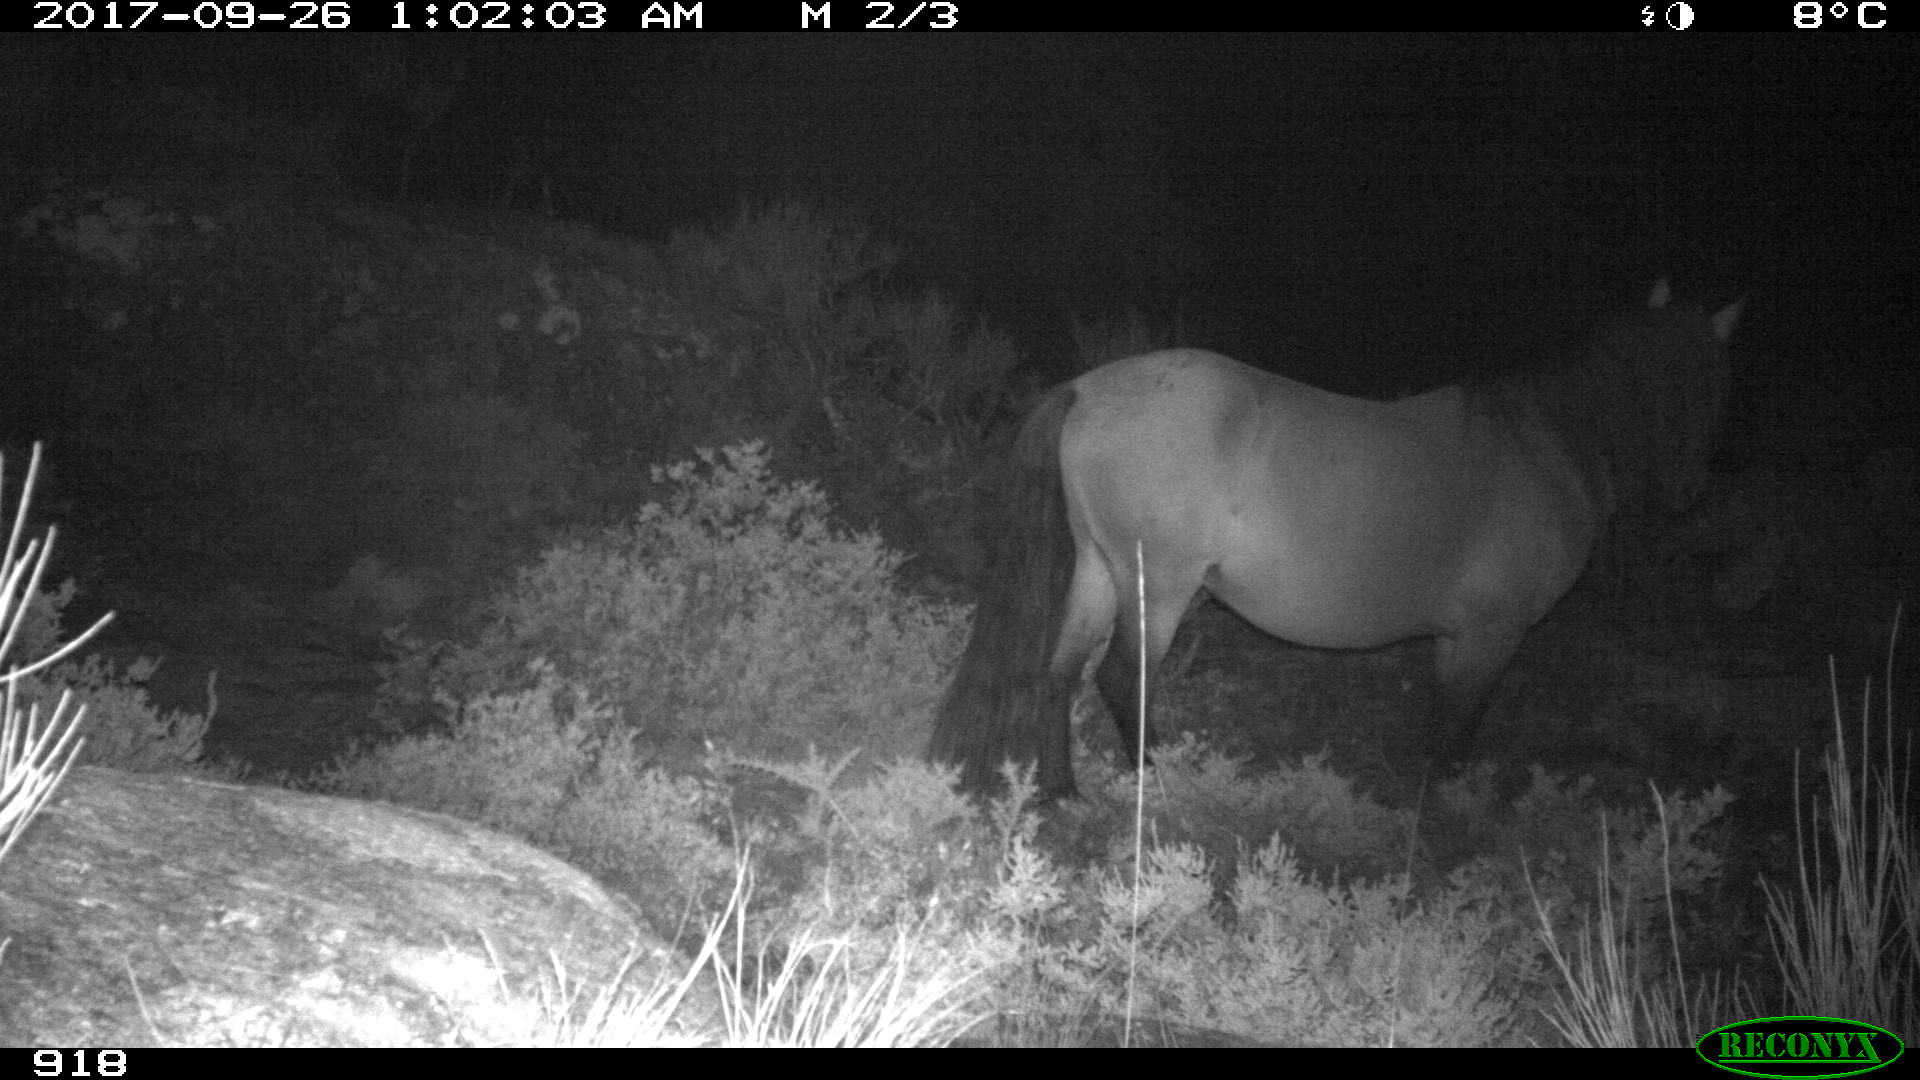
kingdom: Animalia
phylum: Chordata
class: Mammalia
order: Perissodactyla
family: Equidae
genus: Equus
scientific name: Equus caballus
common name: Horse
